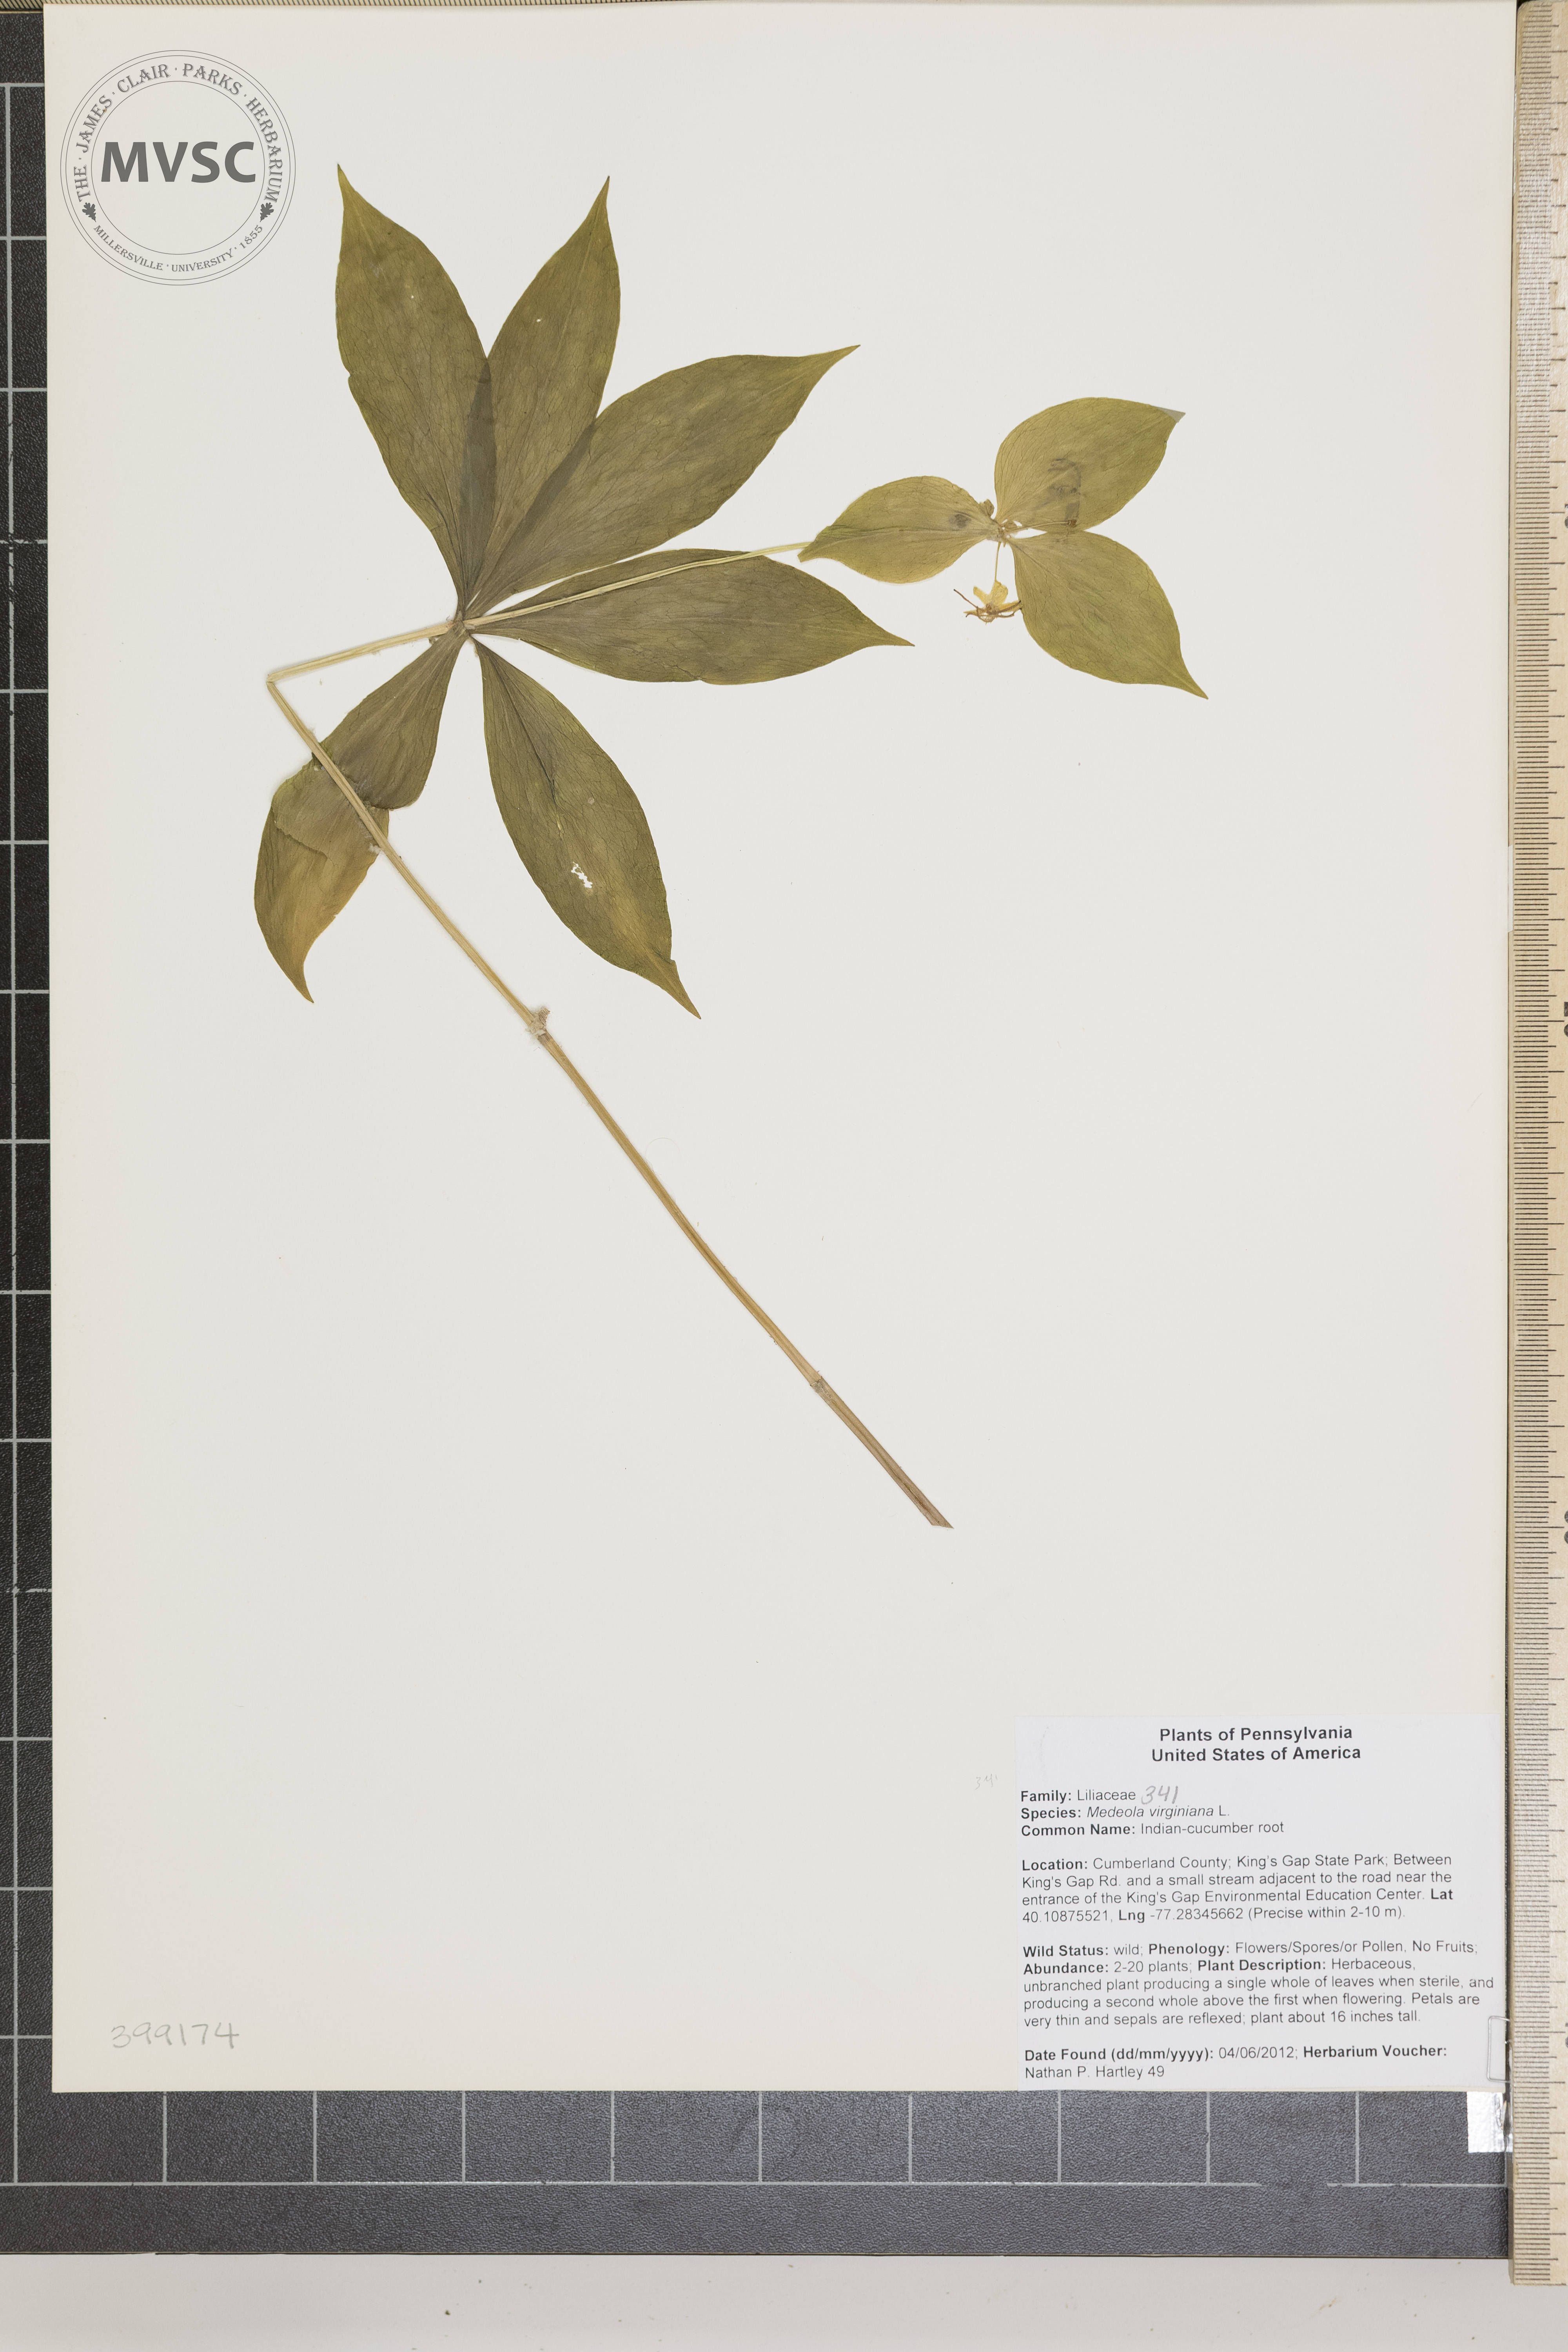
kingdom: Plantae
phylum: Tracheophyta
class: Liliopsida
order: Liliales
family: Liliaceae
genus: Medeola
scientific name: Medeola virginiana
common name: Indian cucumber-root
